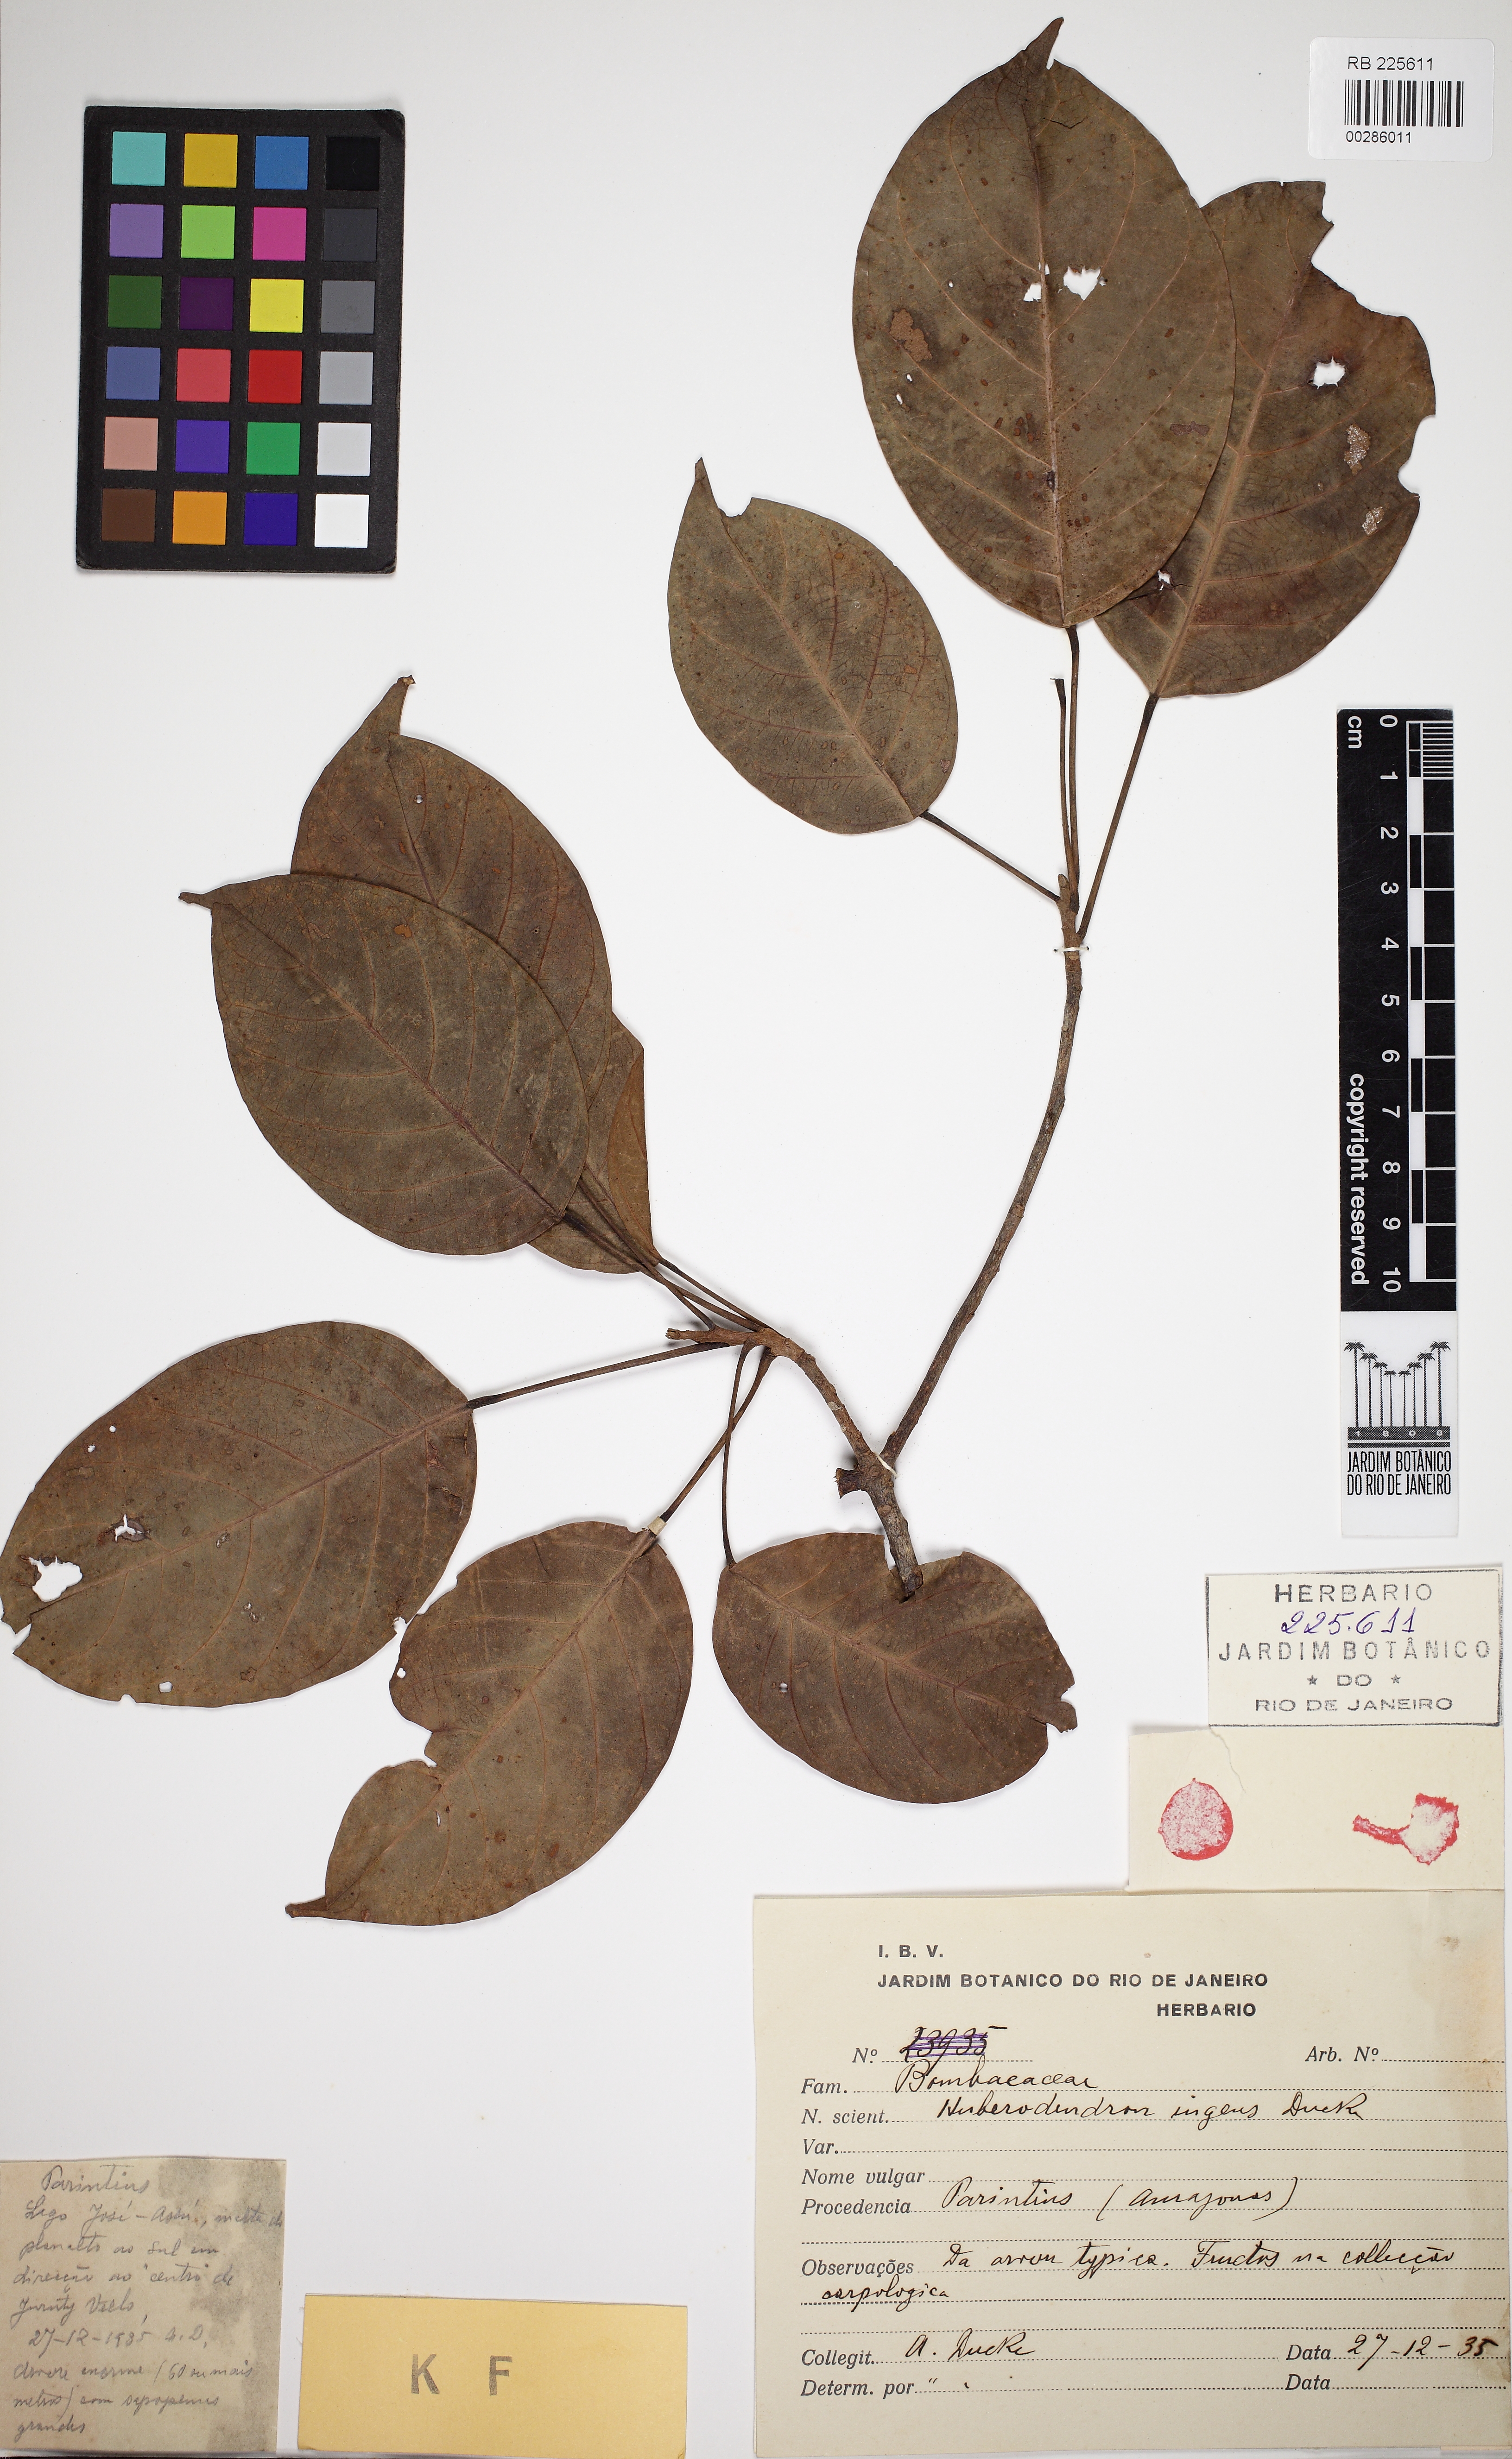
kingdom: Plantae
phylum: Tracheophyta
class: Magnoliopsida
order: Malvales
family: Malvaceae
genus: Huberodendron
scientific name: Huberodendron ingens
